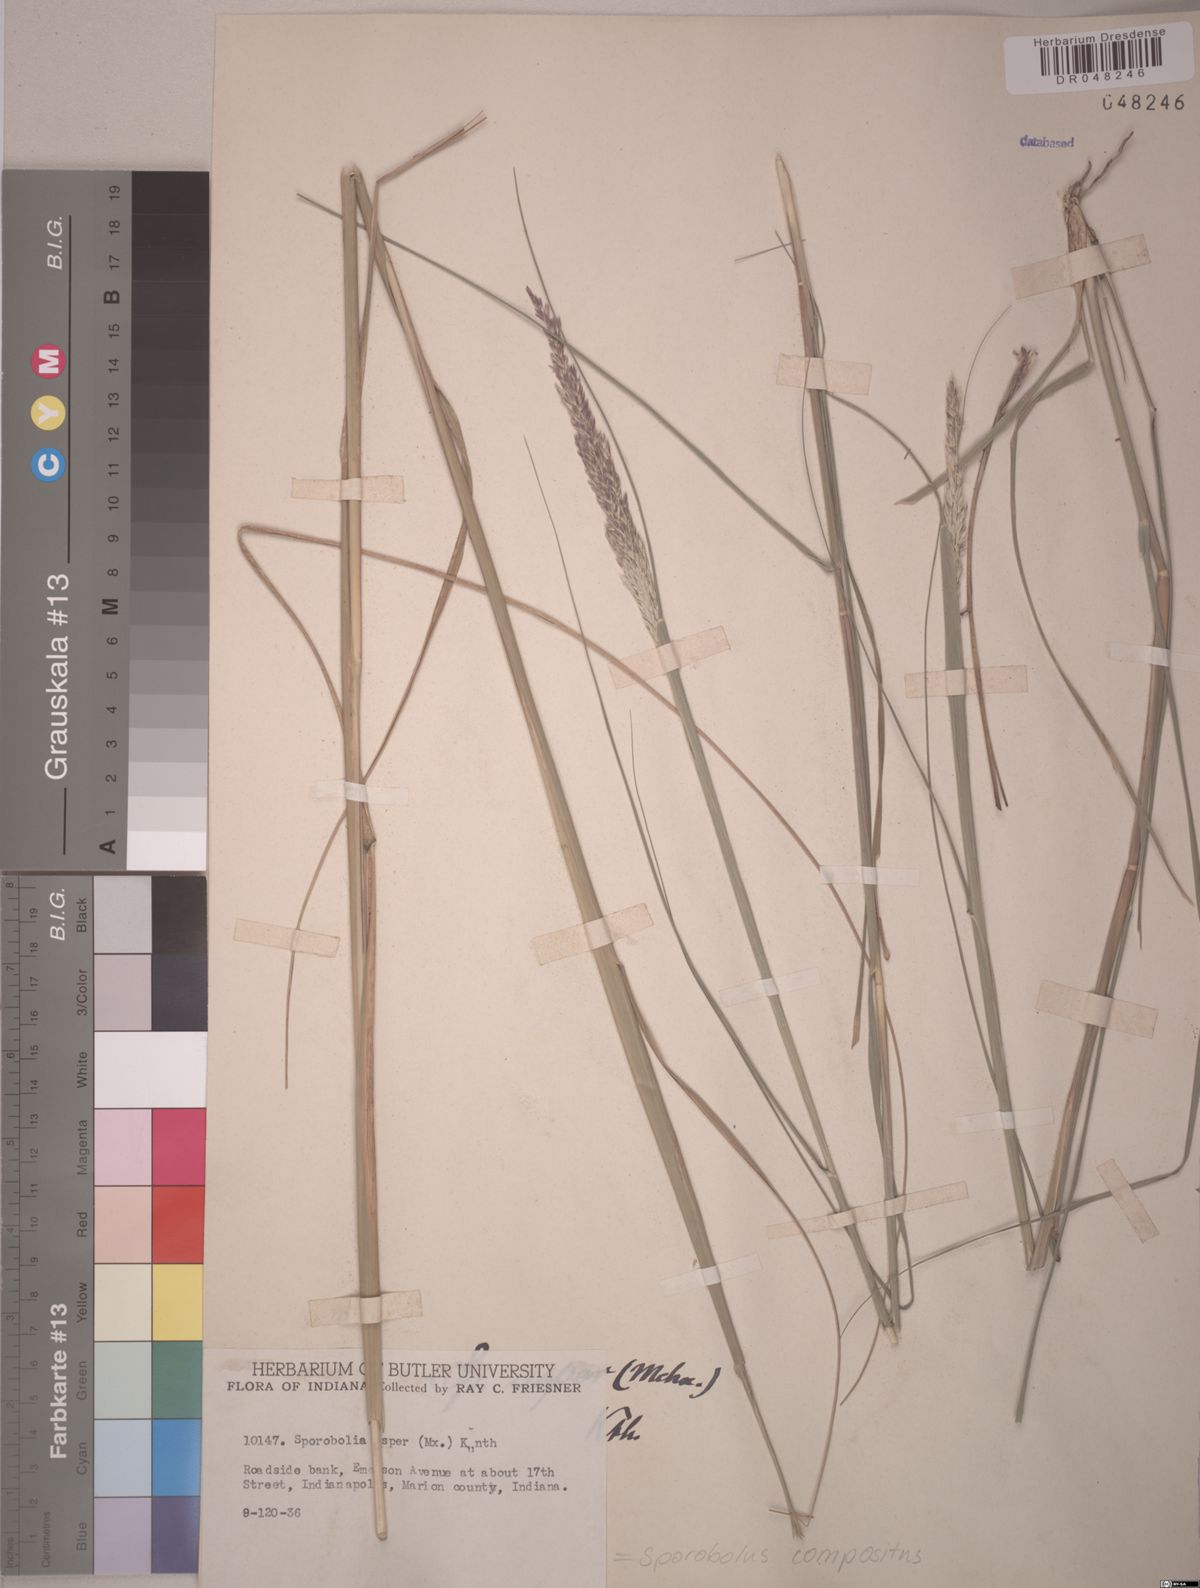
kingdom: Plantae
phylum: Tracheophyta
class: Liliopsida
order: Poales
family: Poaceae
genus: Sporobolus
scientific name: Sporobolus compositus
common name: Rough dropseed
